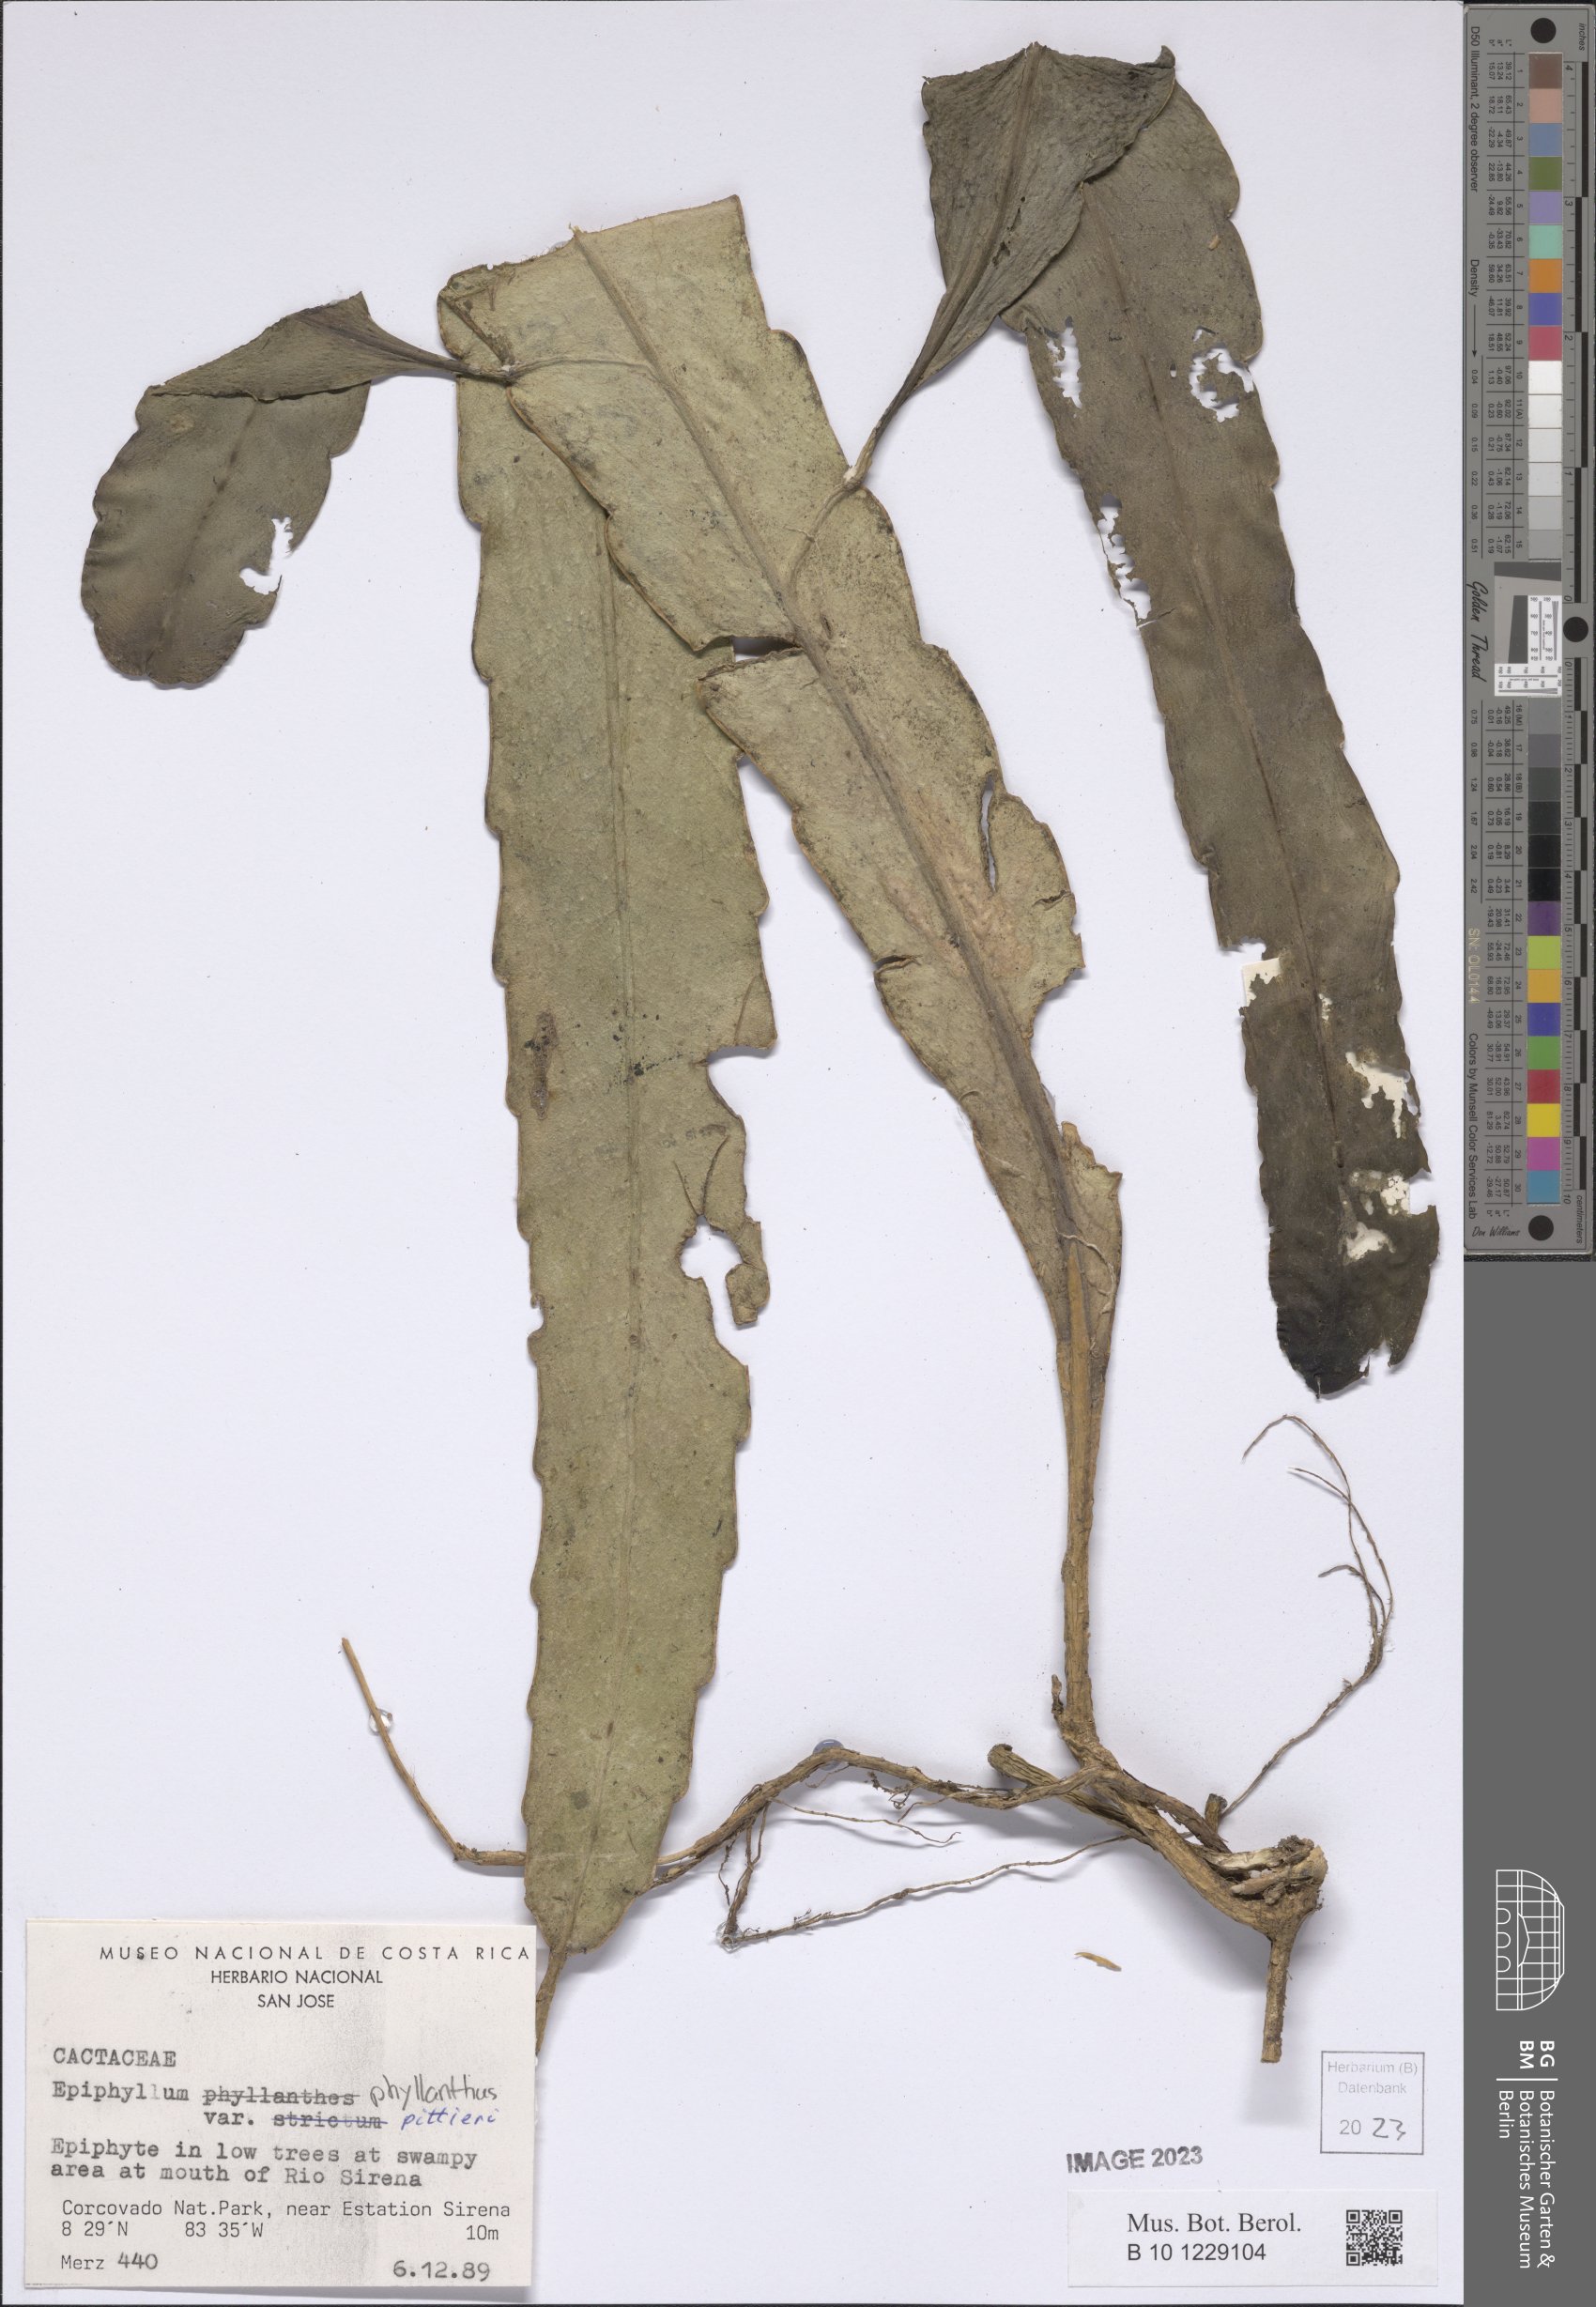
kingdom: Plantae
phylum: Tracheophyta
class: Magnoliopsida
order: Caryophyllales
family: Cactaceae
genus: Epiphyllum
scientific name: Epiphyllum hookeri
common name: Climbing cactus
